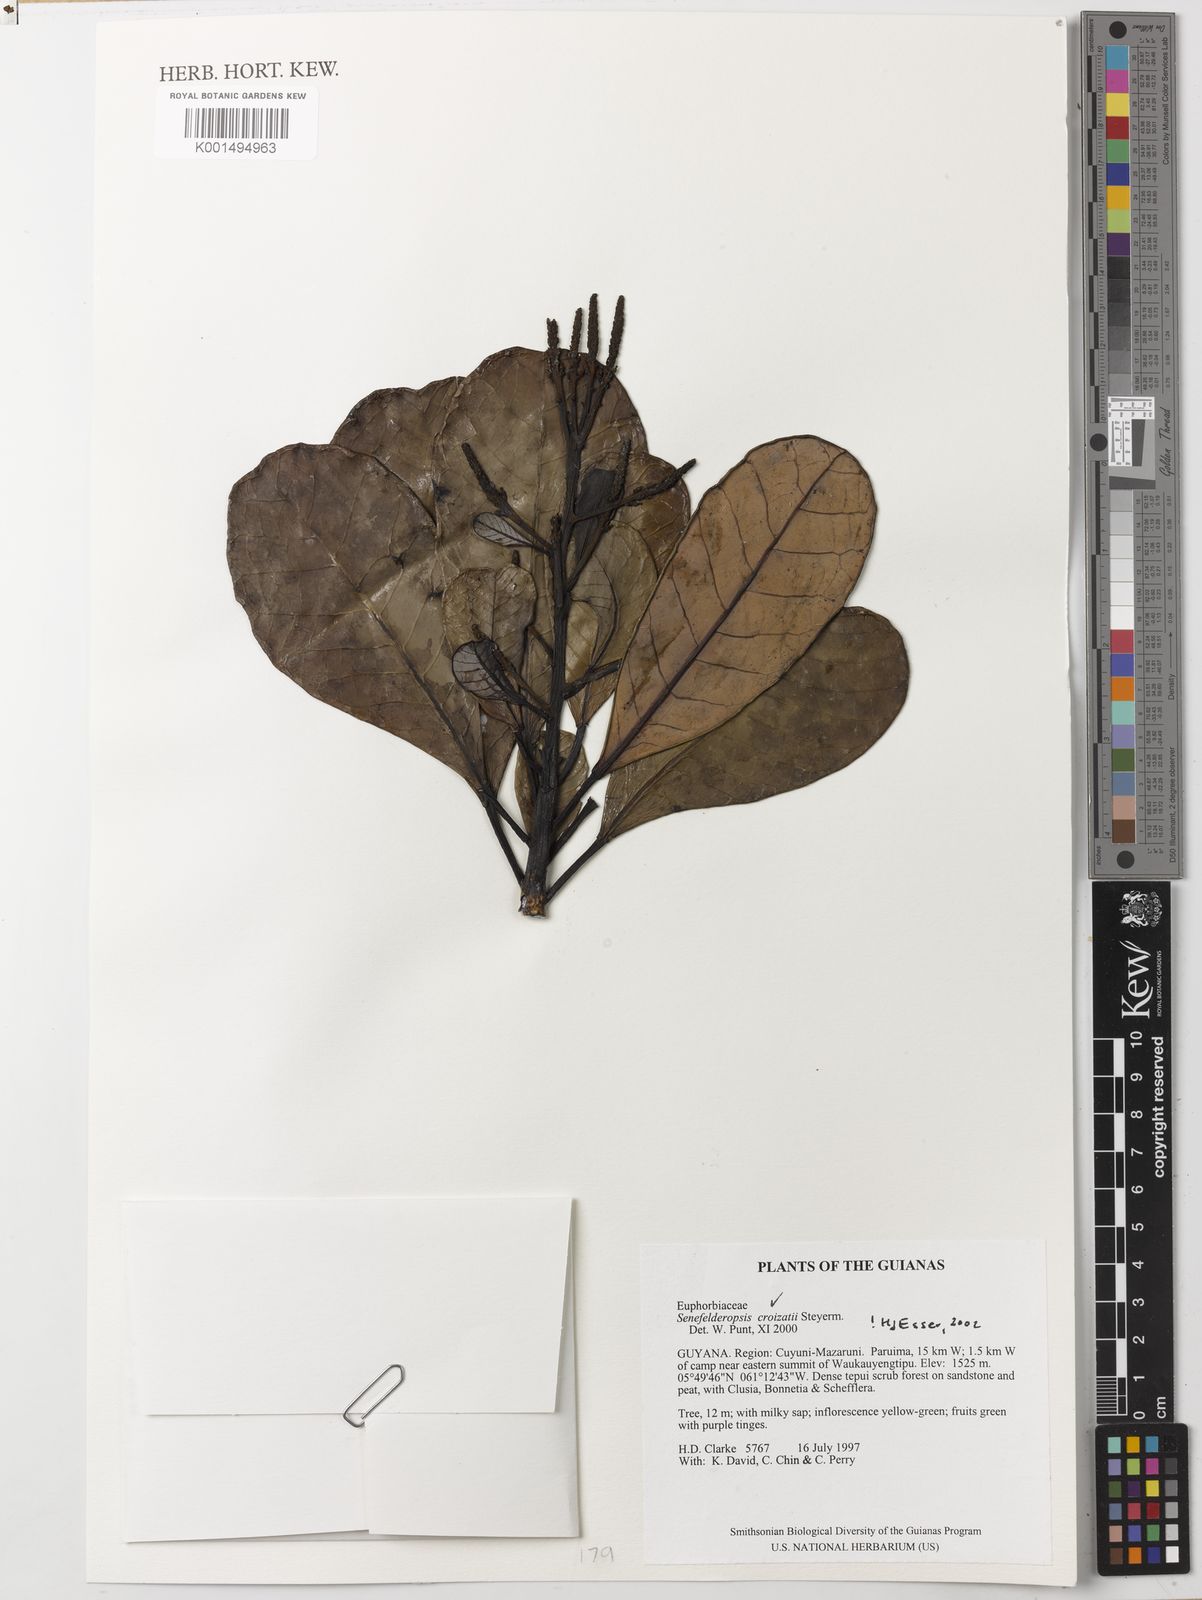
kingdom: Plantae
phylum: Tracheophyta
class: Magnoliopsida
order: Malpighiales
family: Euphorbiaceae
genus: Senefelderopsis
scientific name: Senefelderopsis croizatii
